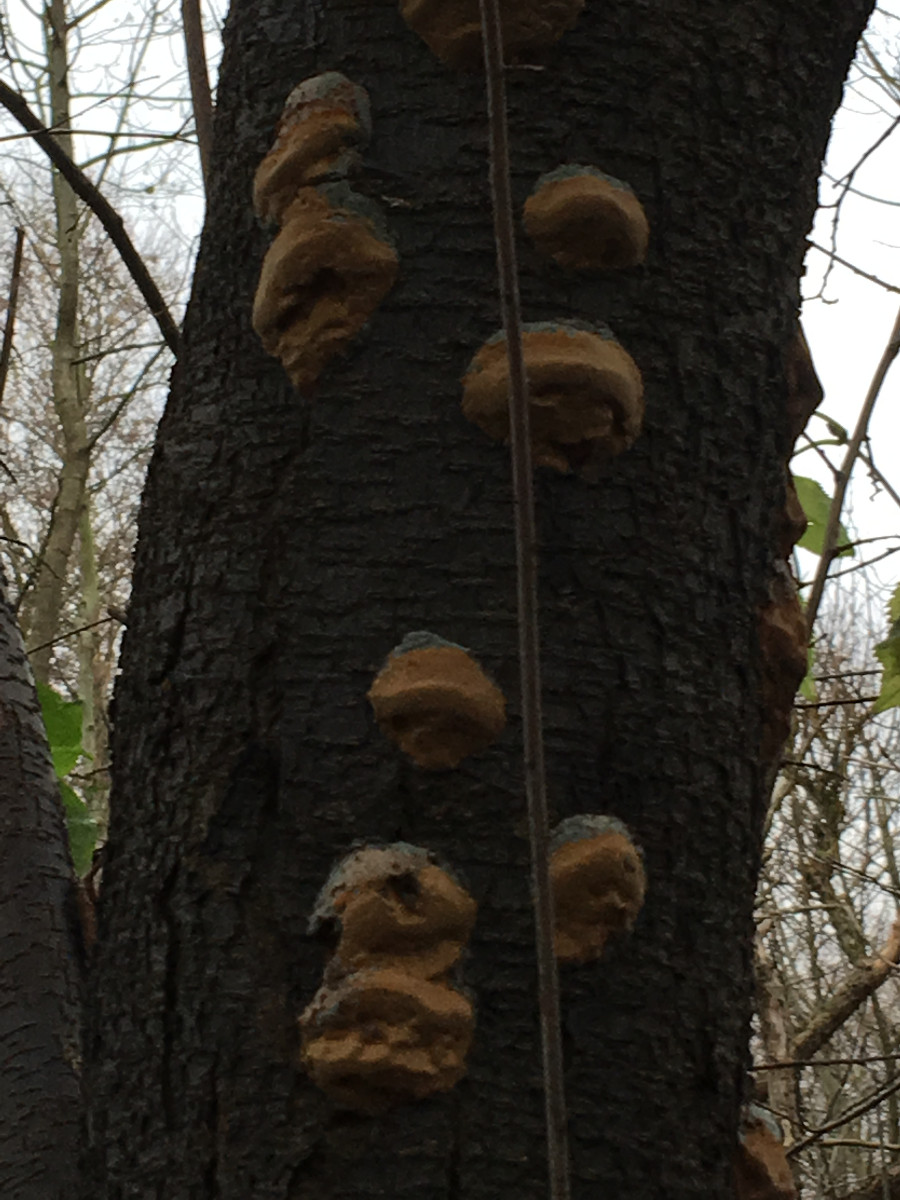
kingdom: Fungi
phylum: Basidiomycota
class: Agaricomycetes
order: Hymenochaetales
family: Hymenochaetaceae
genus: Phellinus
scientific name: Phellinus pomaceus
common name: blomme-ildporesvamp
